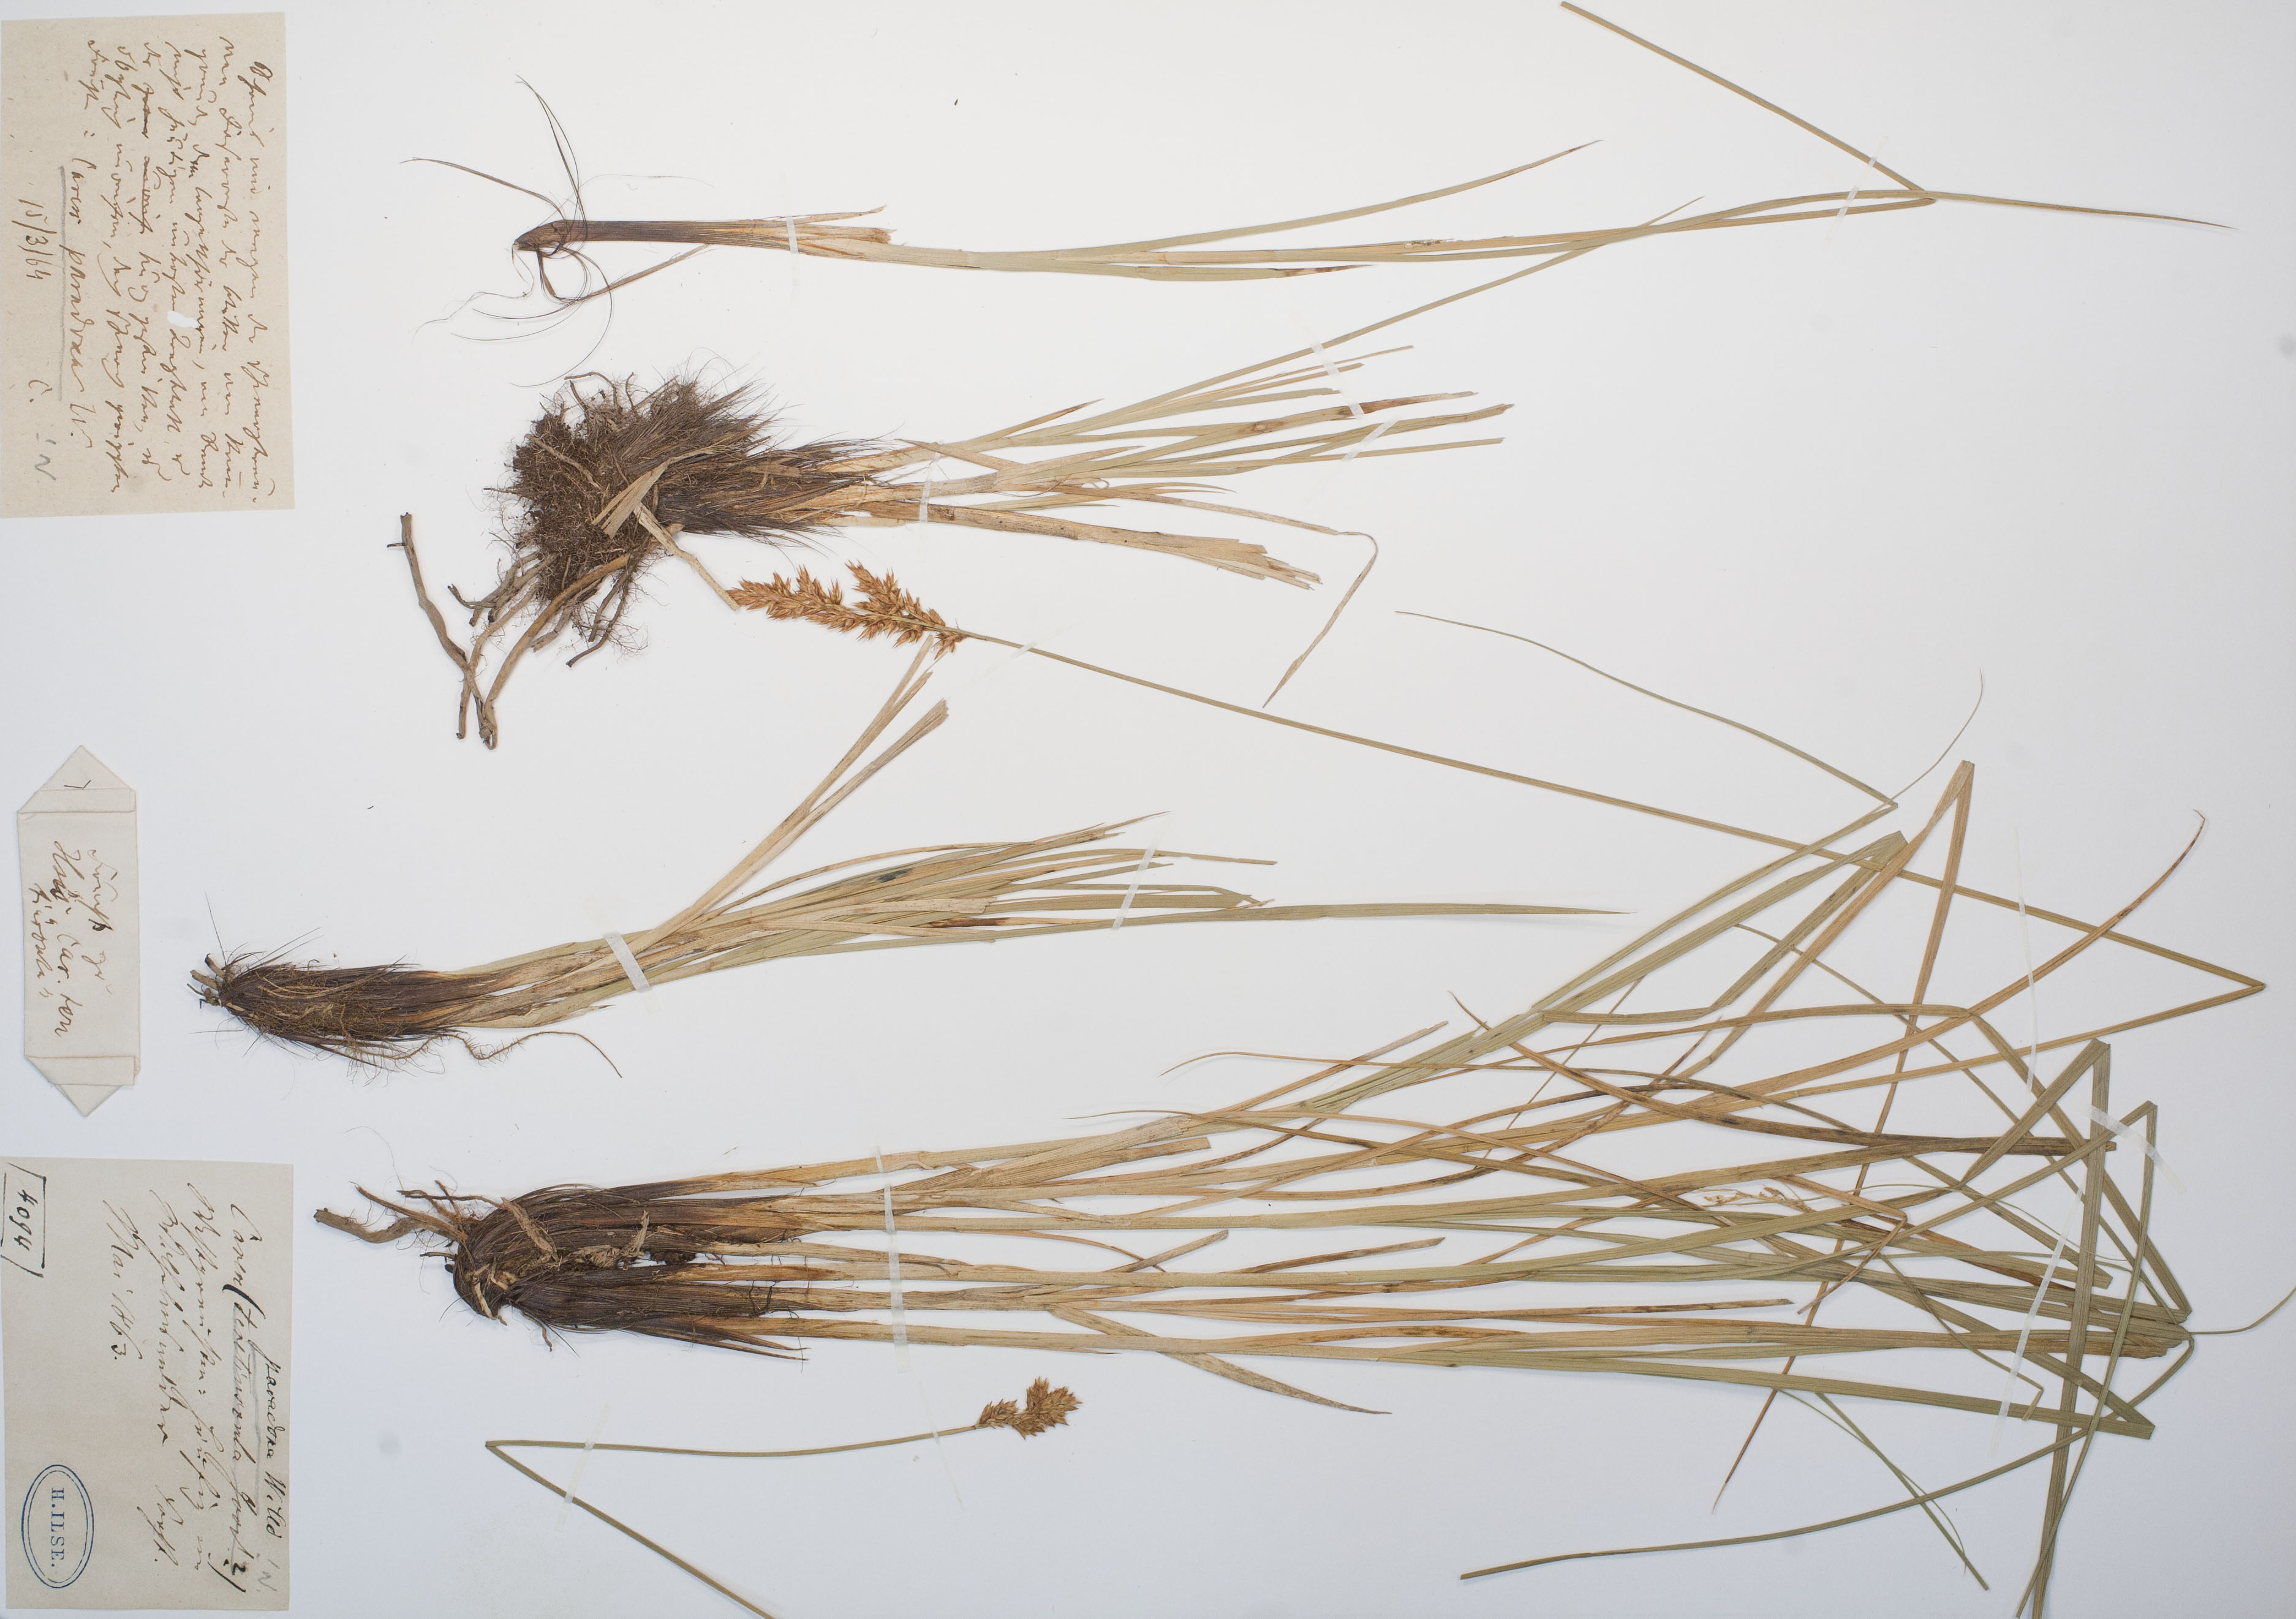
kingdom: Plantae
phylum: Tracheophyta
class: Liliopsida
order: Poales
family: Cyperaceae
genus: Carex
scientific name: Carex appropinquata
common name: Fibrous tussock-sedge
